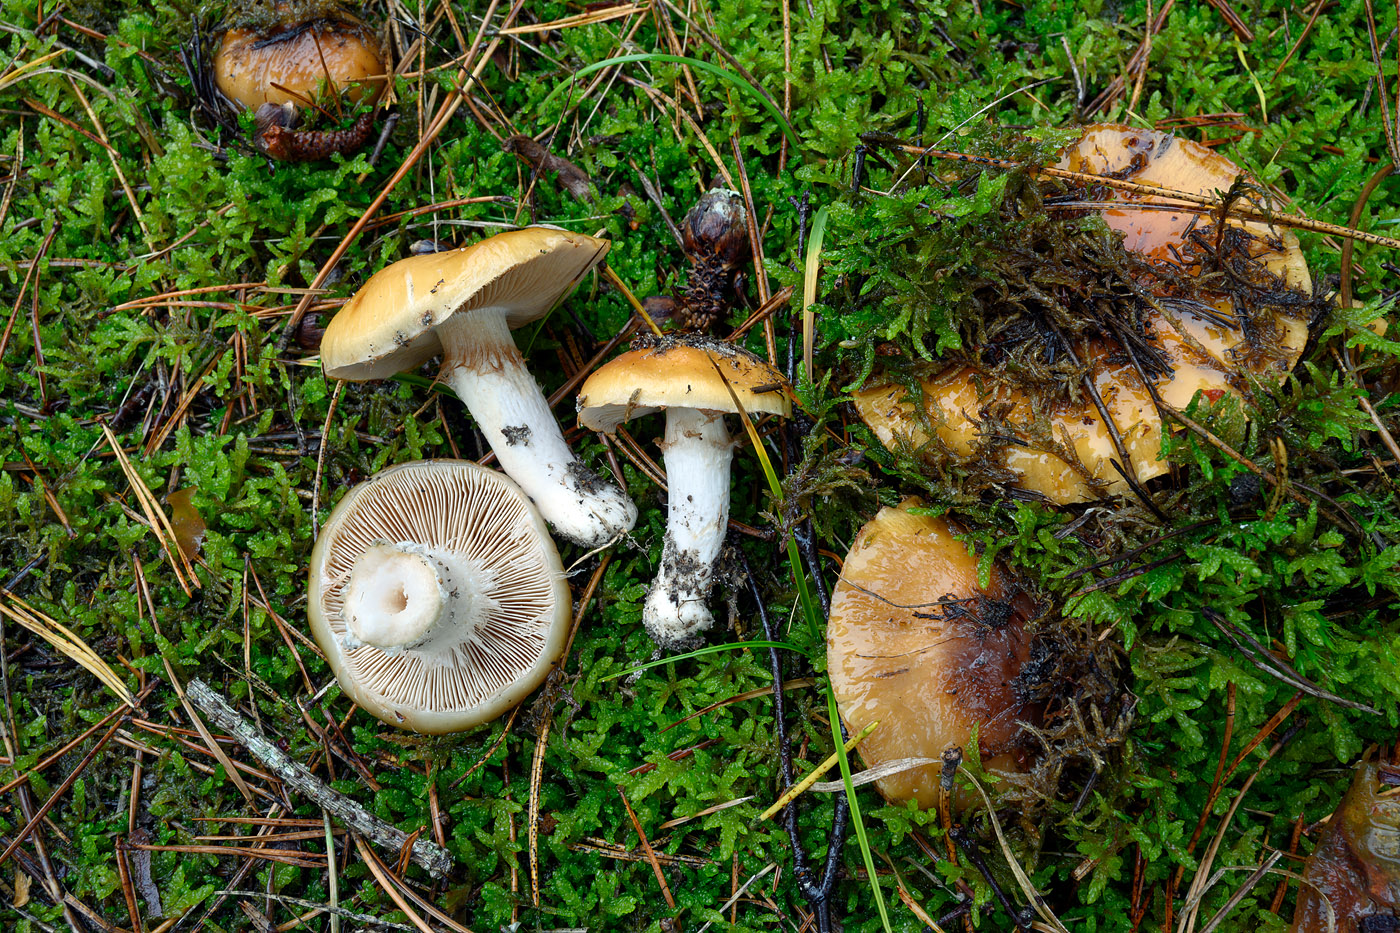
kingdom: Fungi
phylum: Basidiomycota
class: Agaricomycetes
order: Agaricales
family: Cortinariaceae
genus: Cortinarius
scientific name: Cortinarius mucosus
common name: kastaniebrun slørhat
